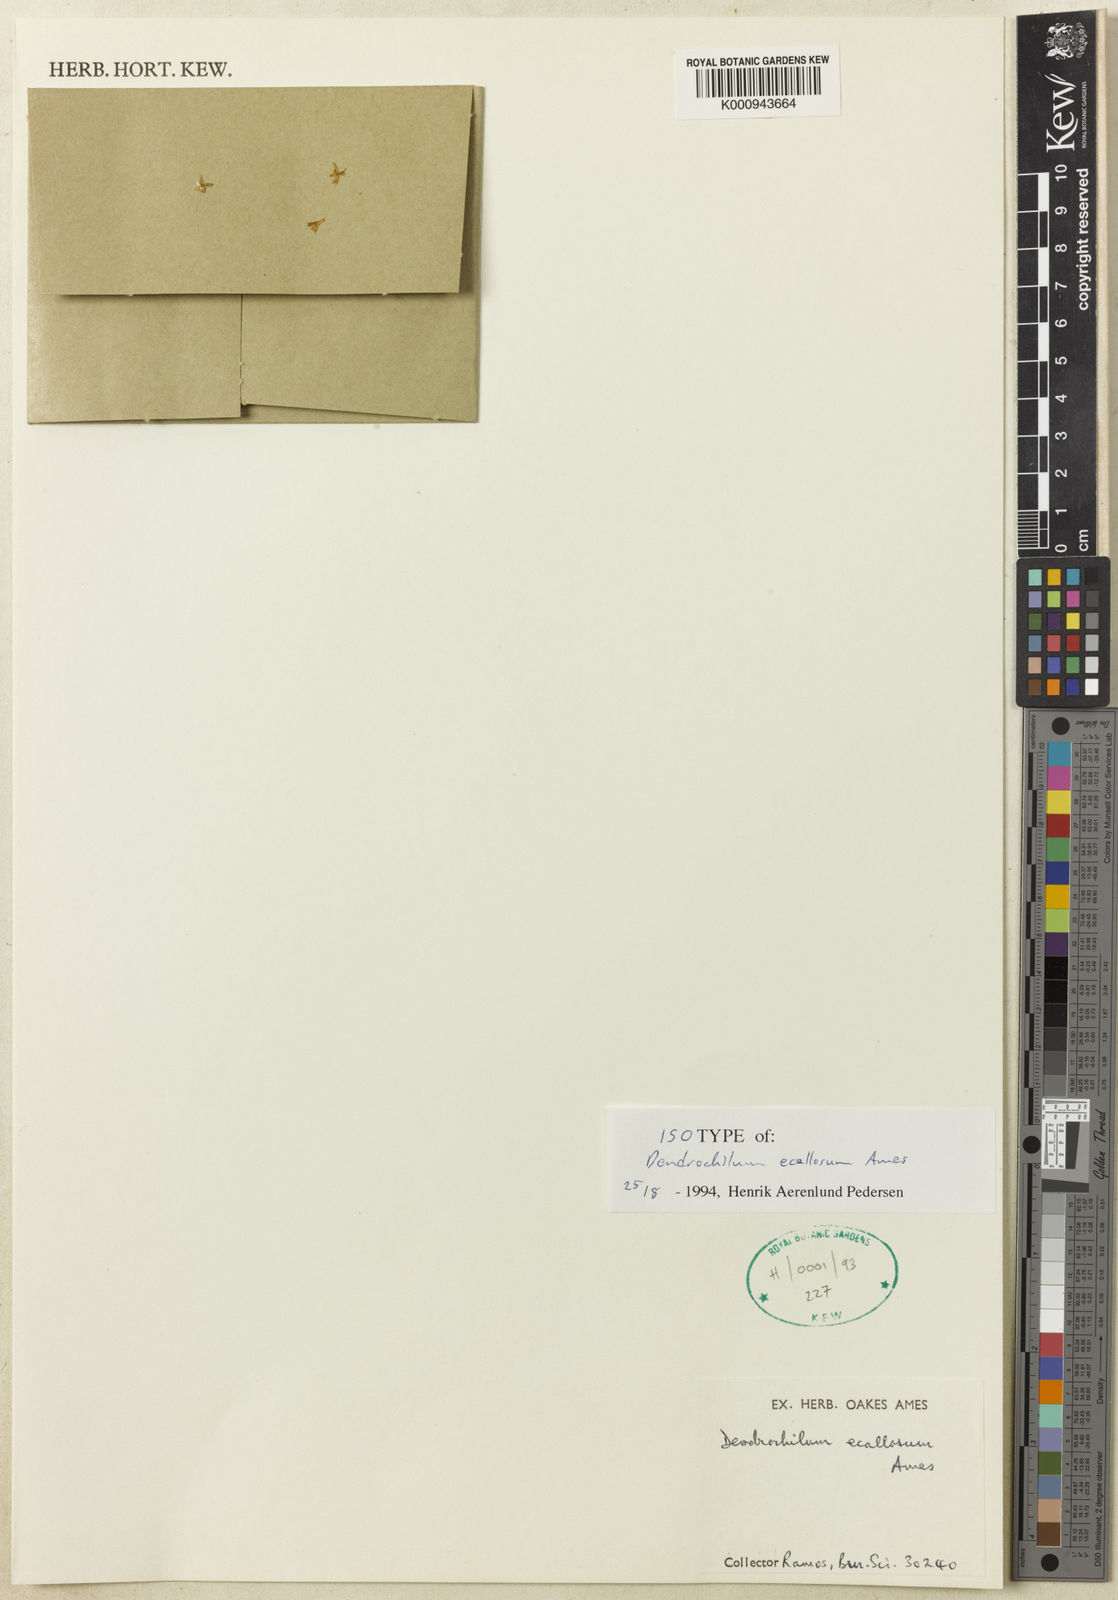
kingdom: Plantae
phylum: Tracheophyta
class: Liliopsida
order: Asparagales
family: Orchidaceae
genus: Coelogyne
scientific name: Coelogyne ecallosa
